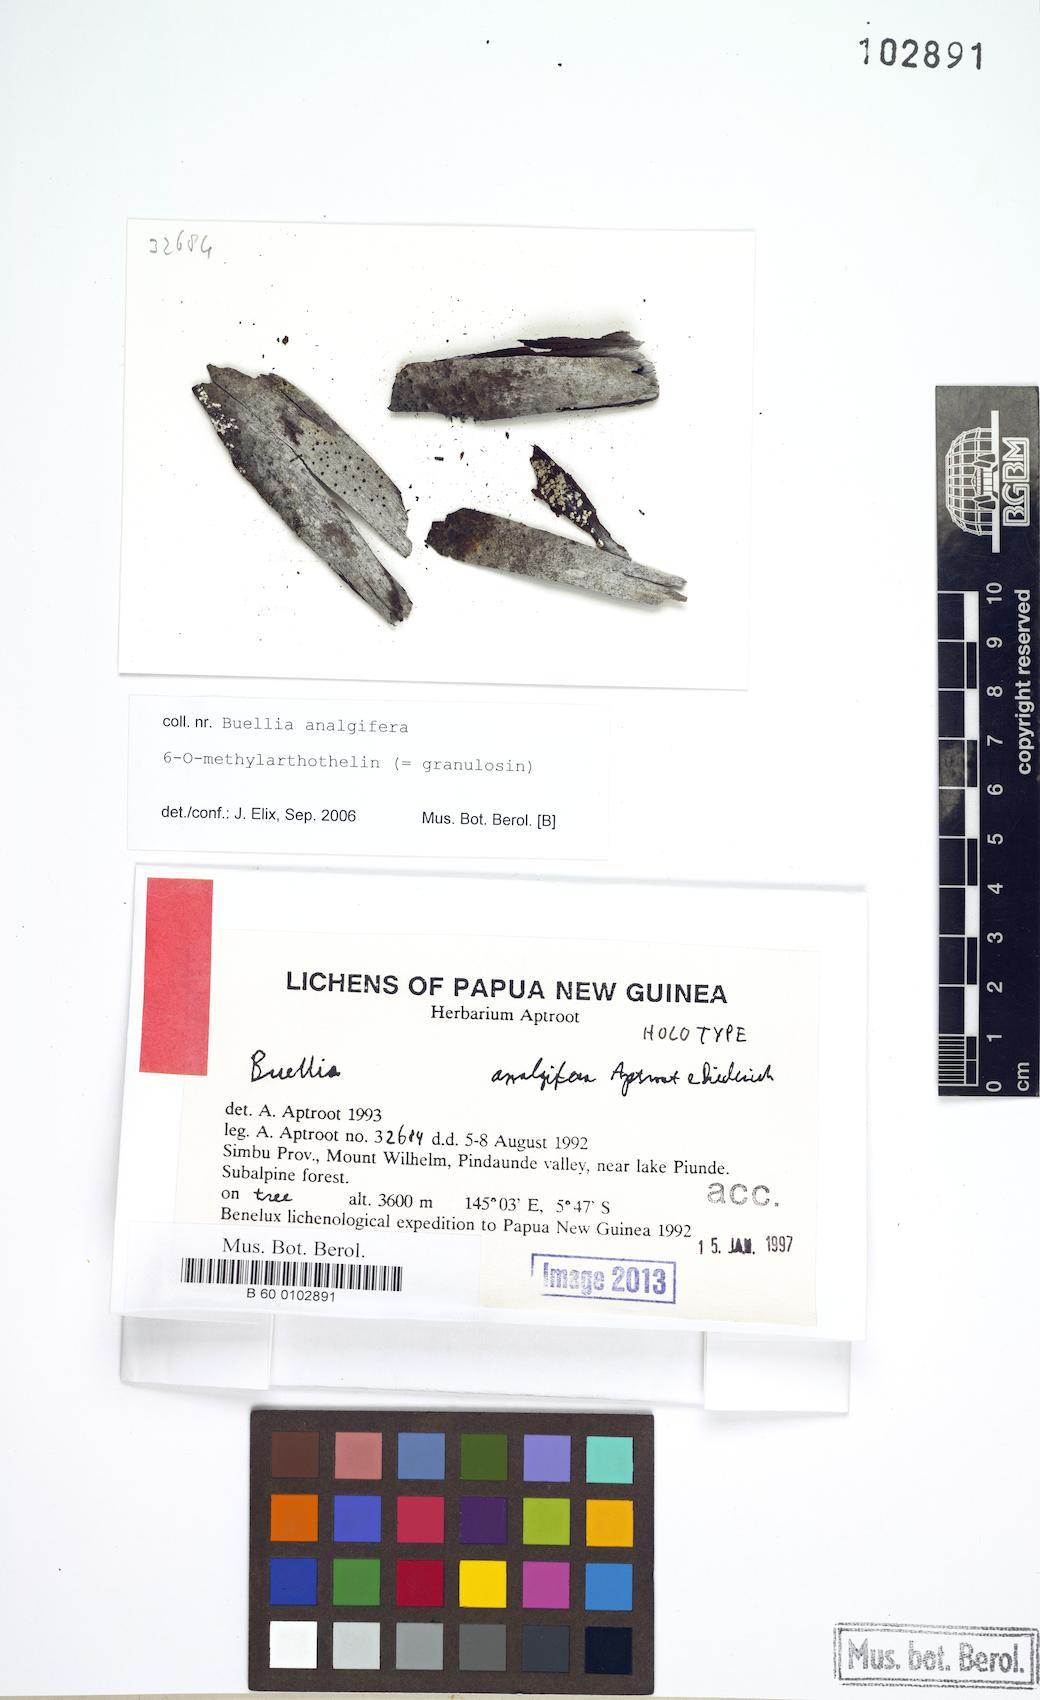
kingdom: Fungi
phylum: Ascomycota
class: Lecanoromycetes
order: Caliciales
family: Caliciaceae
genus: Amandinea
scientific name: Amandinea analgifera
